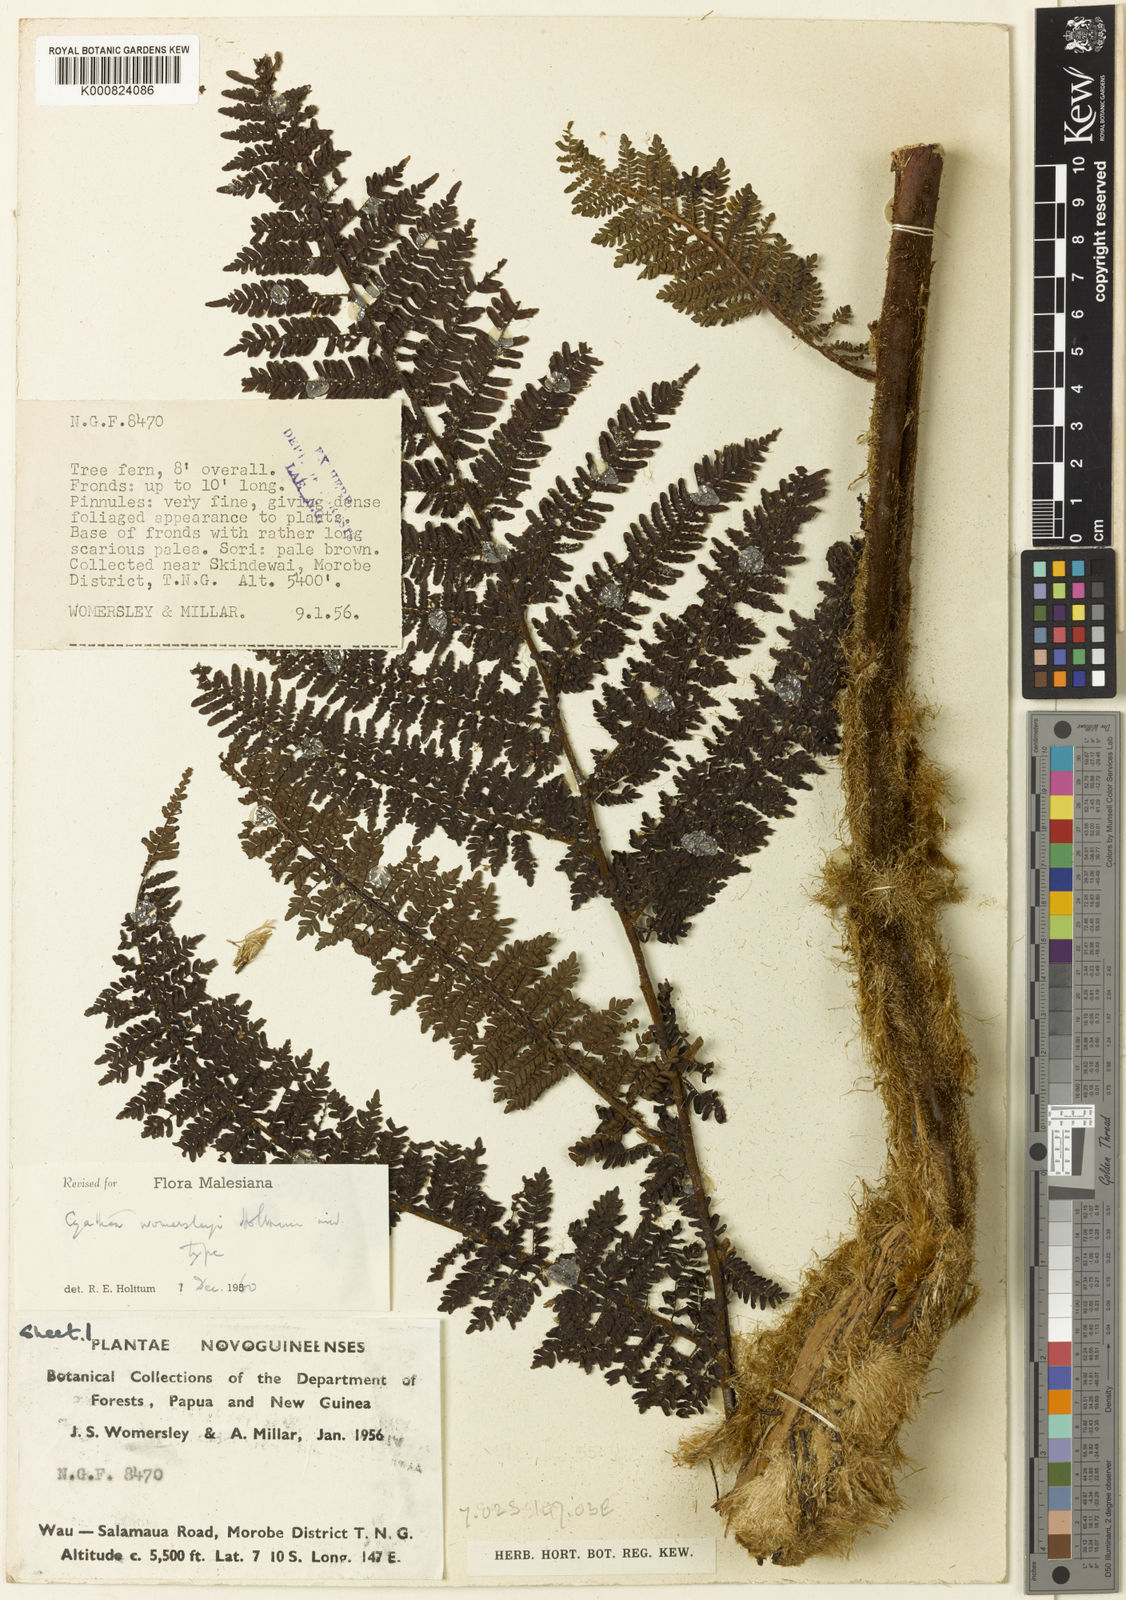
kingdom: Plantae
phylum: Tracheophyta
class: Polypodiopsida
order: Cyatheales
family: Cyatheaceae
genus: Sphaeropteris
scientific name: Sphaeropteris womersleyi
